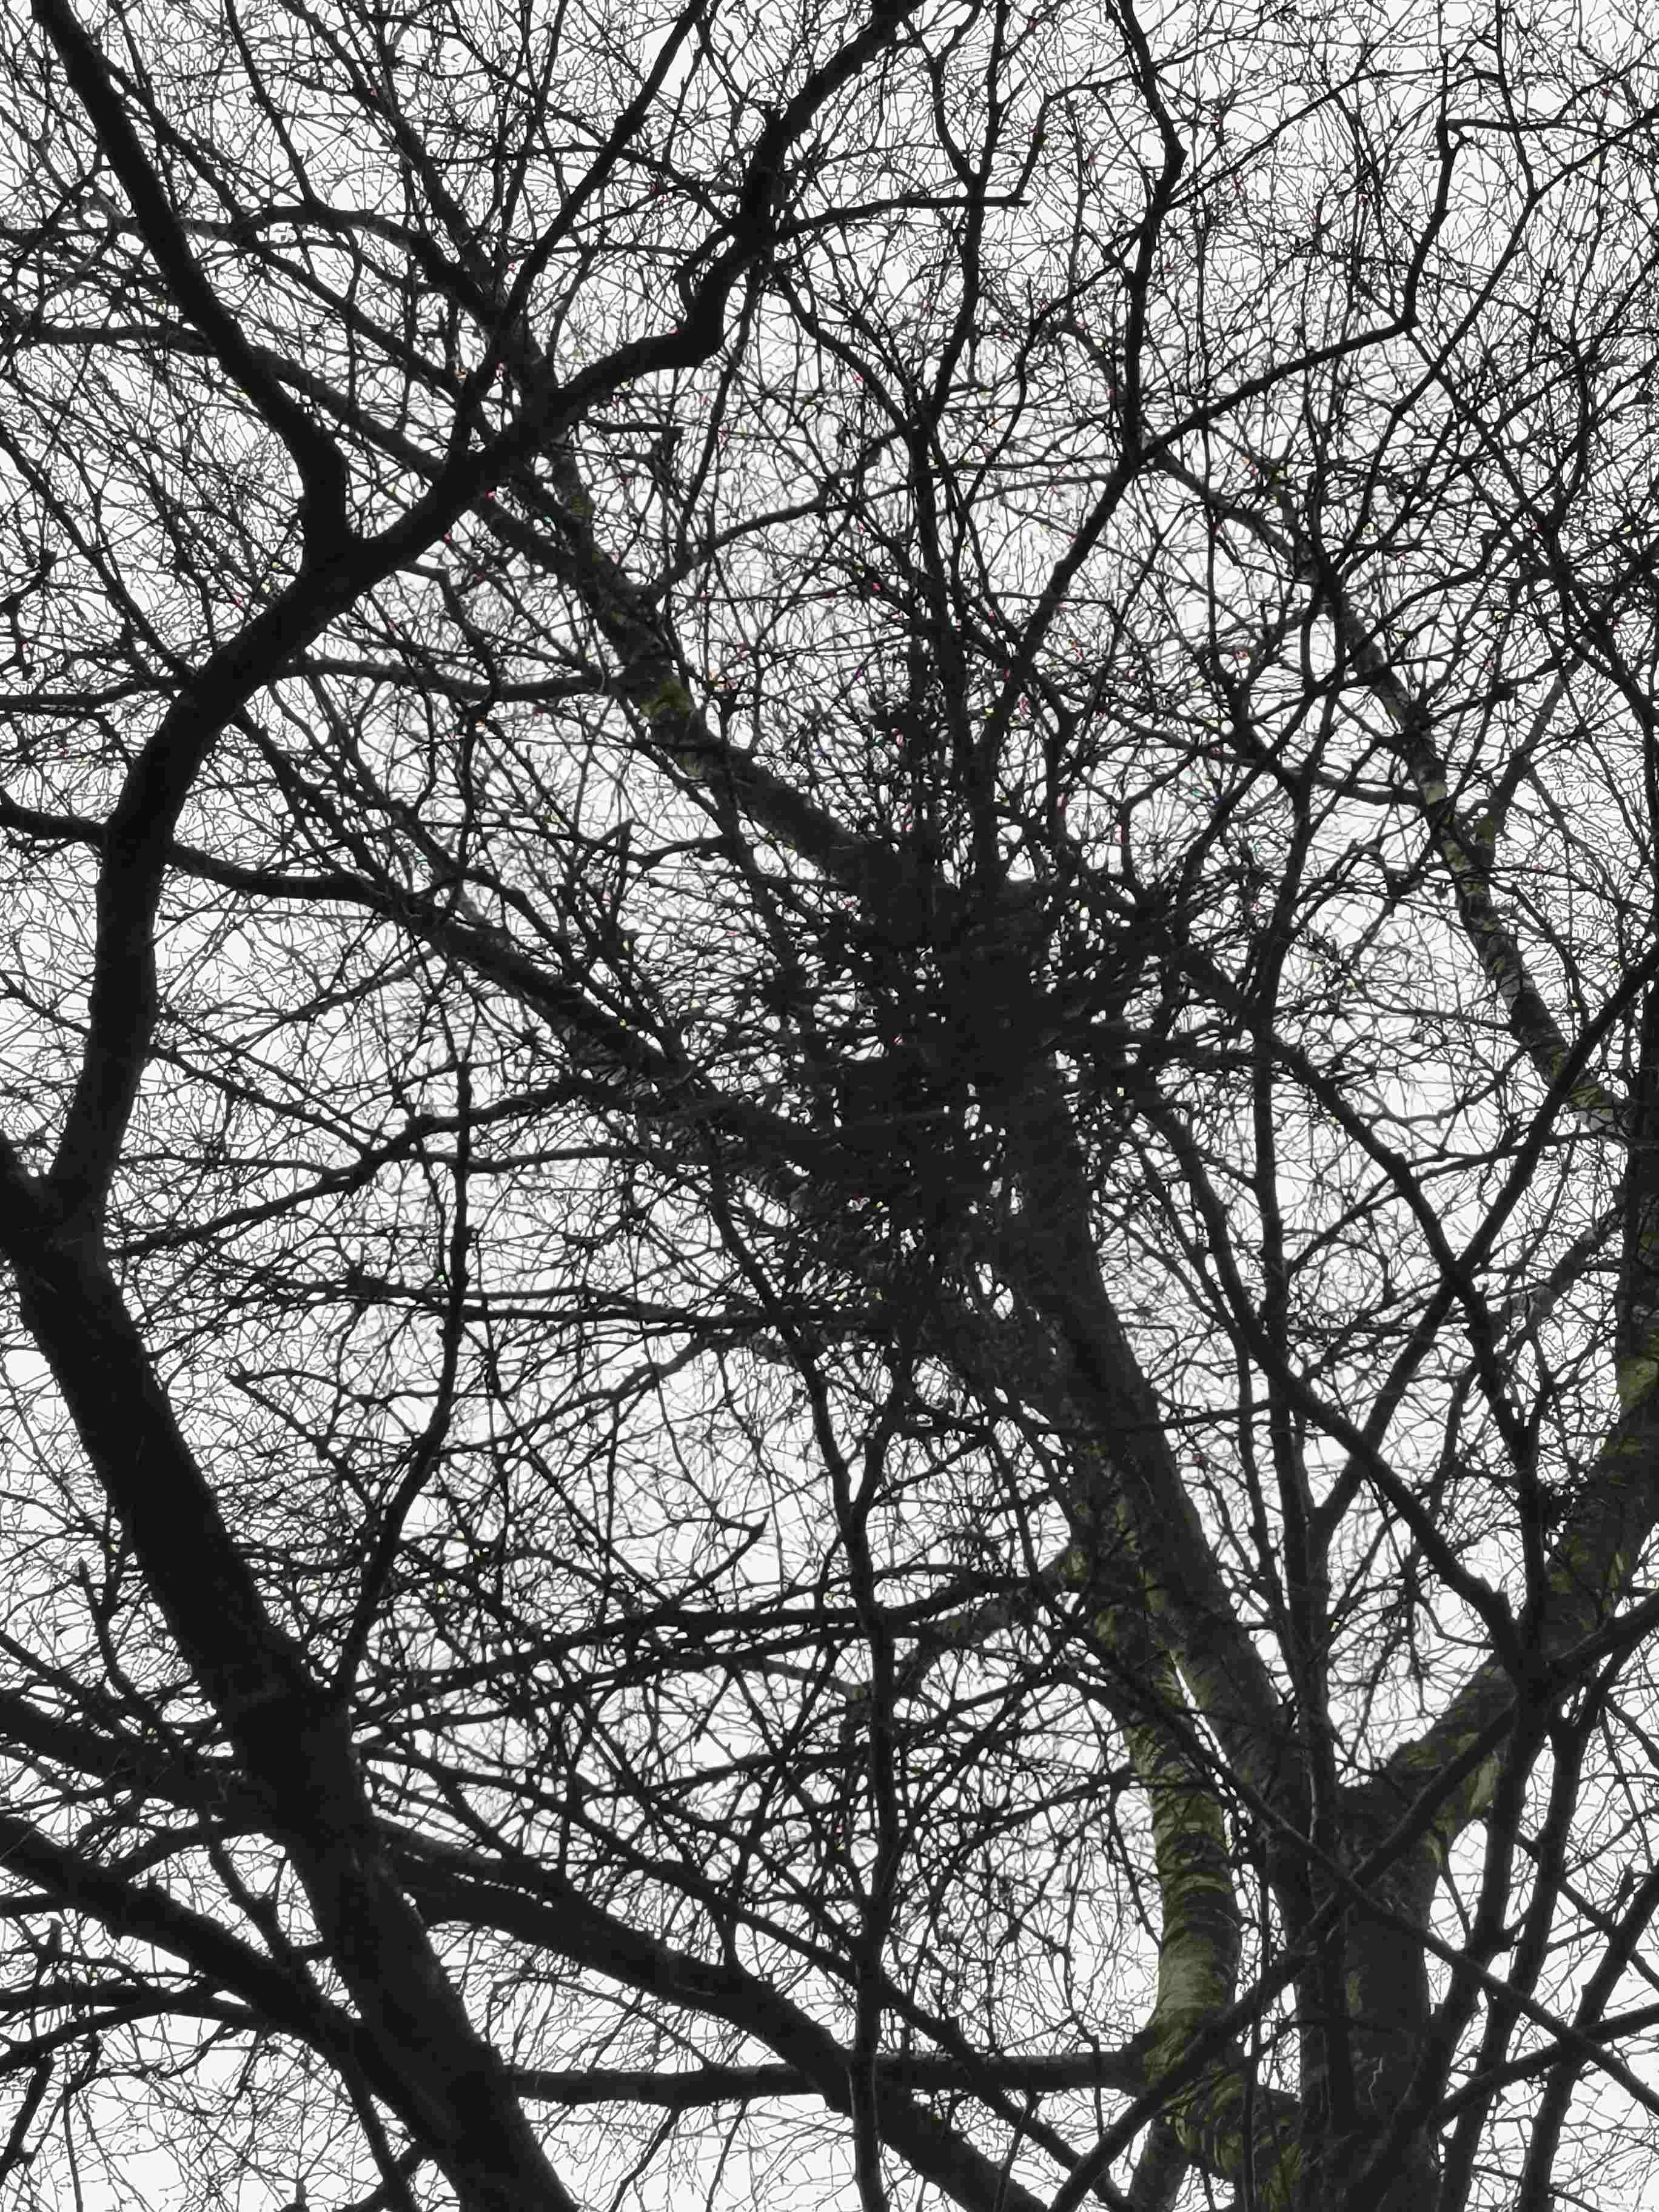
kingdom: Fungi
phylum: Ascomycota
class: Taphrinomycetes
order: Taphrinales
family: Taphrinaceae
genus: Taphrina
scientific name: Taphrina betulina
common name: hekse-sækdug
